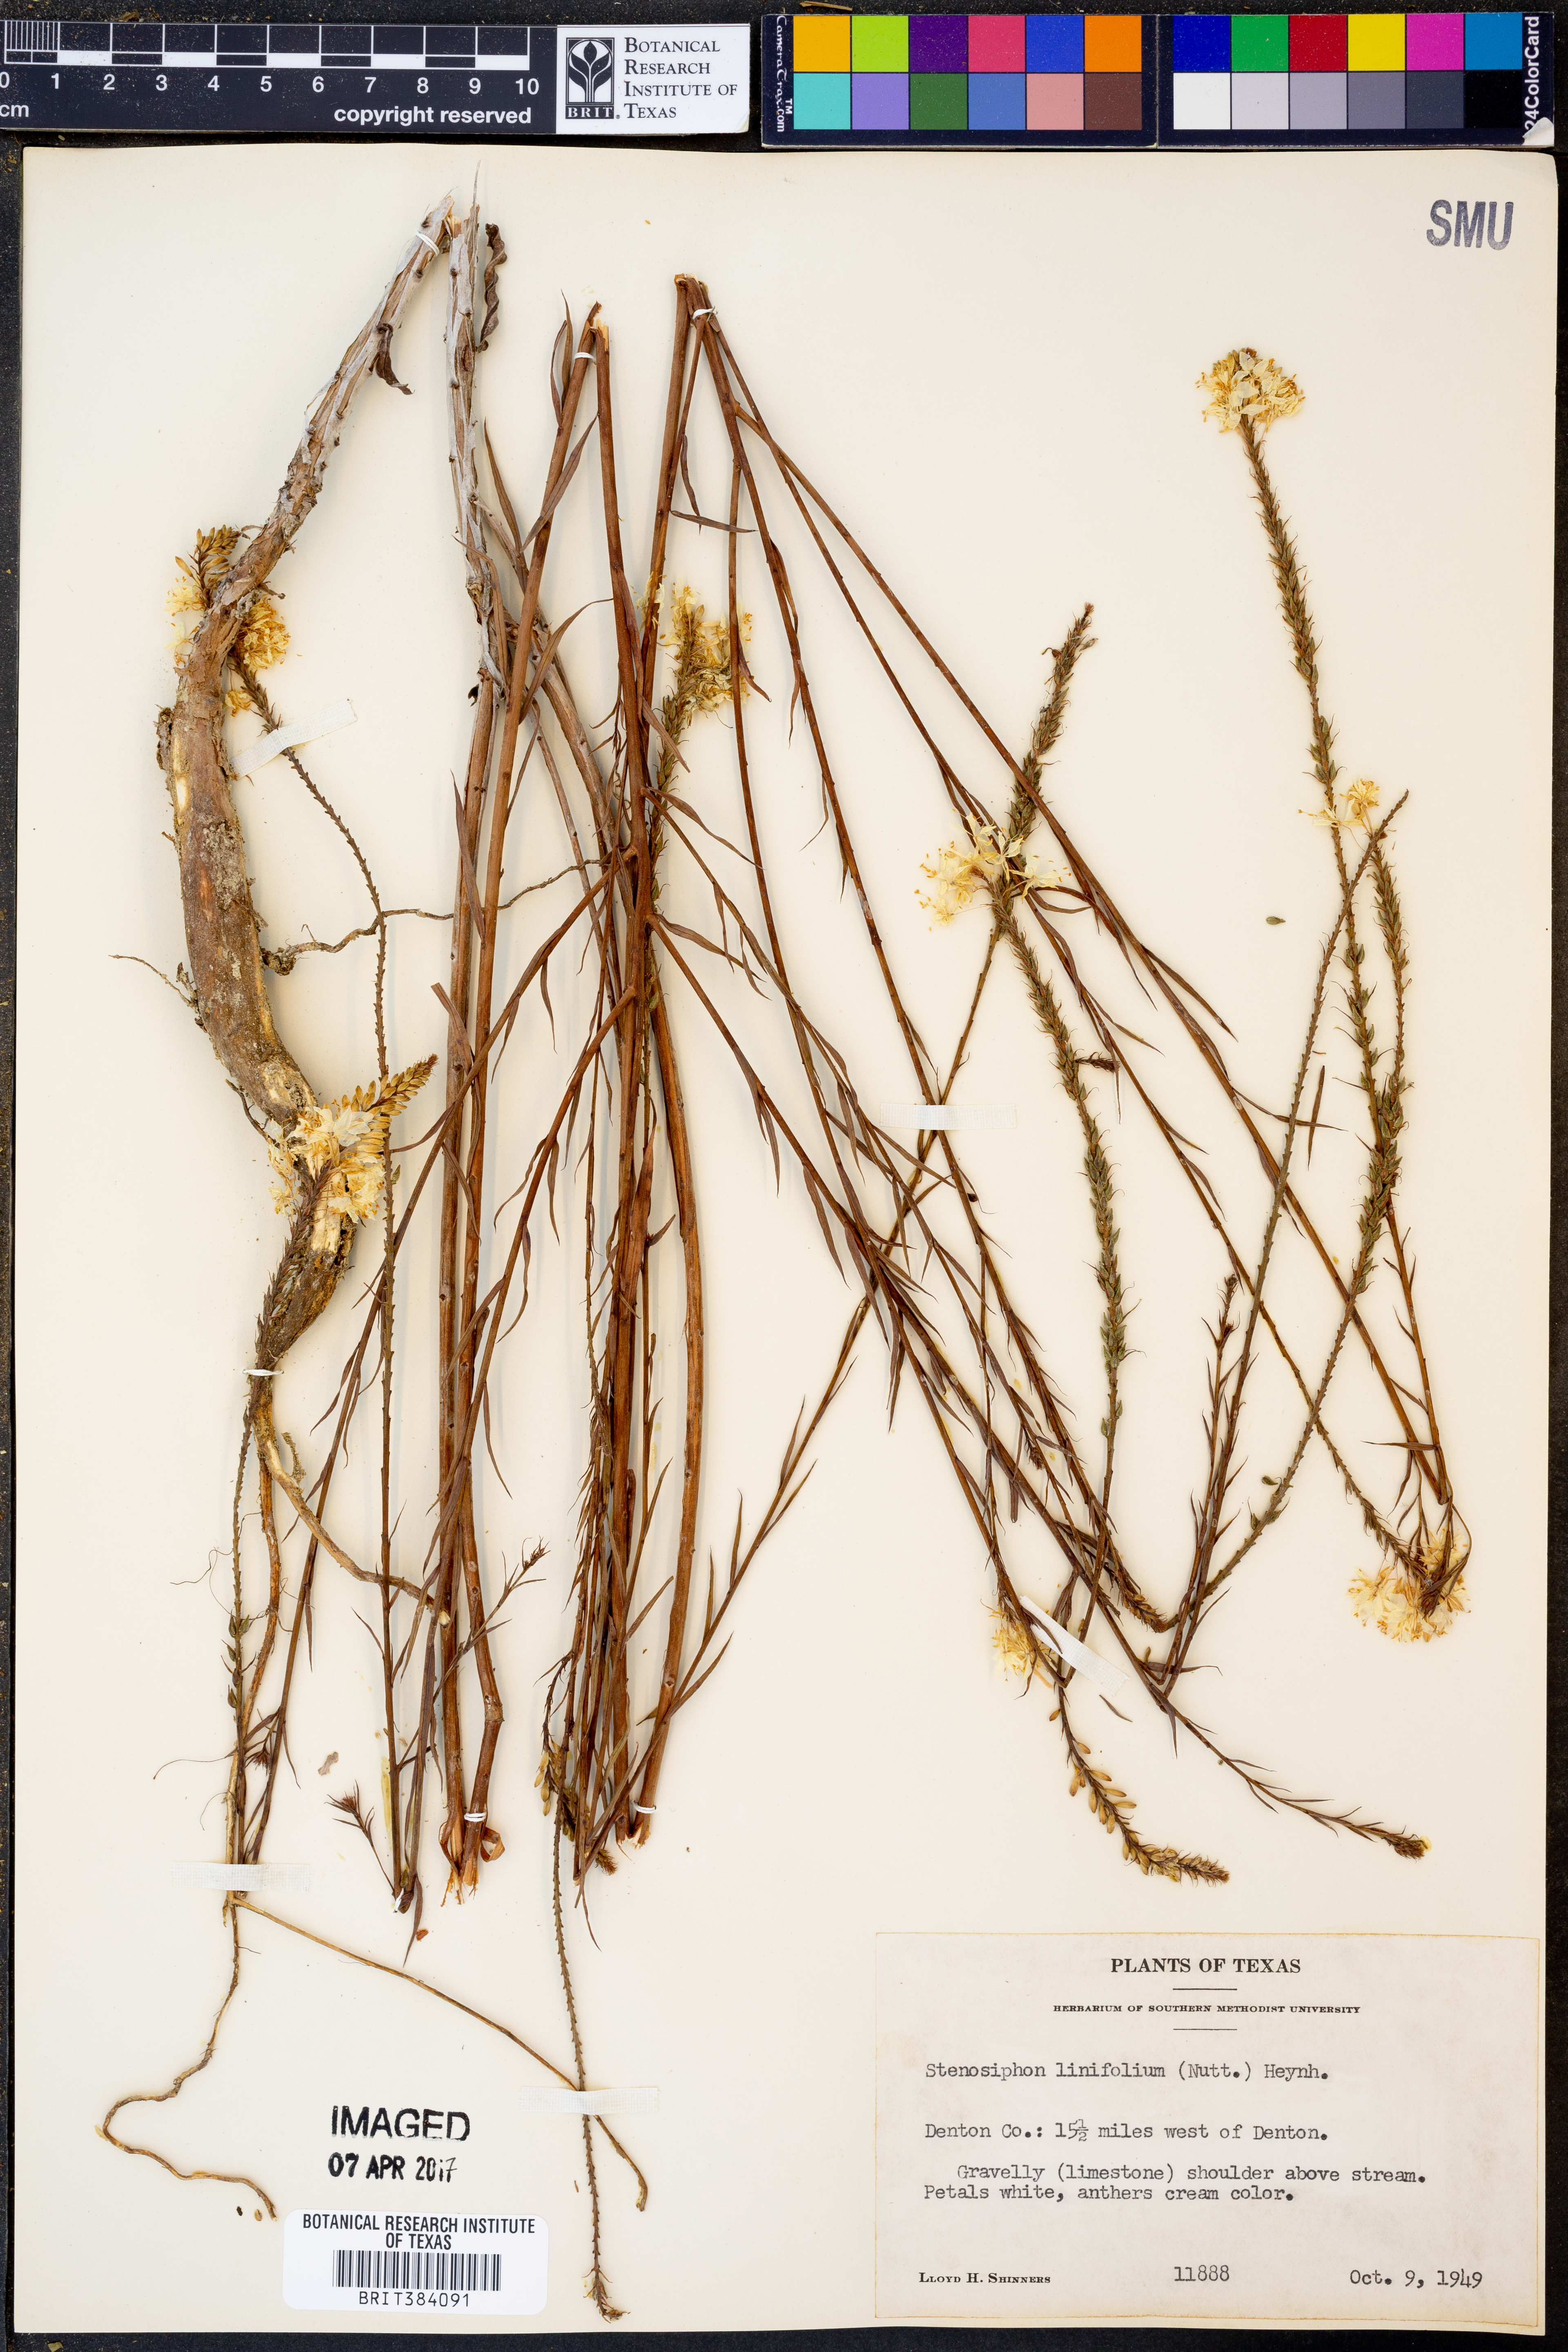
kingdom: Plantae
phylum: Tracheophyta
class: Magnoliopsida
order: Myrtales
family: Onagraceae
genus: Oenothera
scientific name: Oenothera glaucifolia
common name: False gaura
